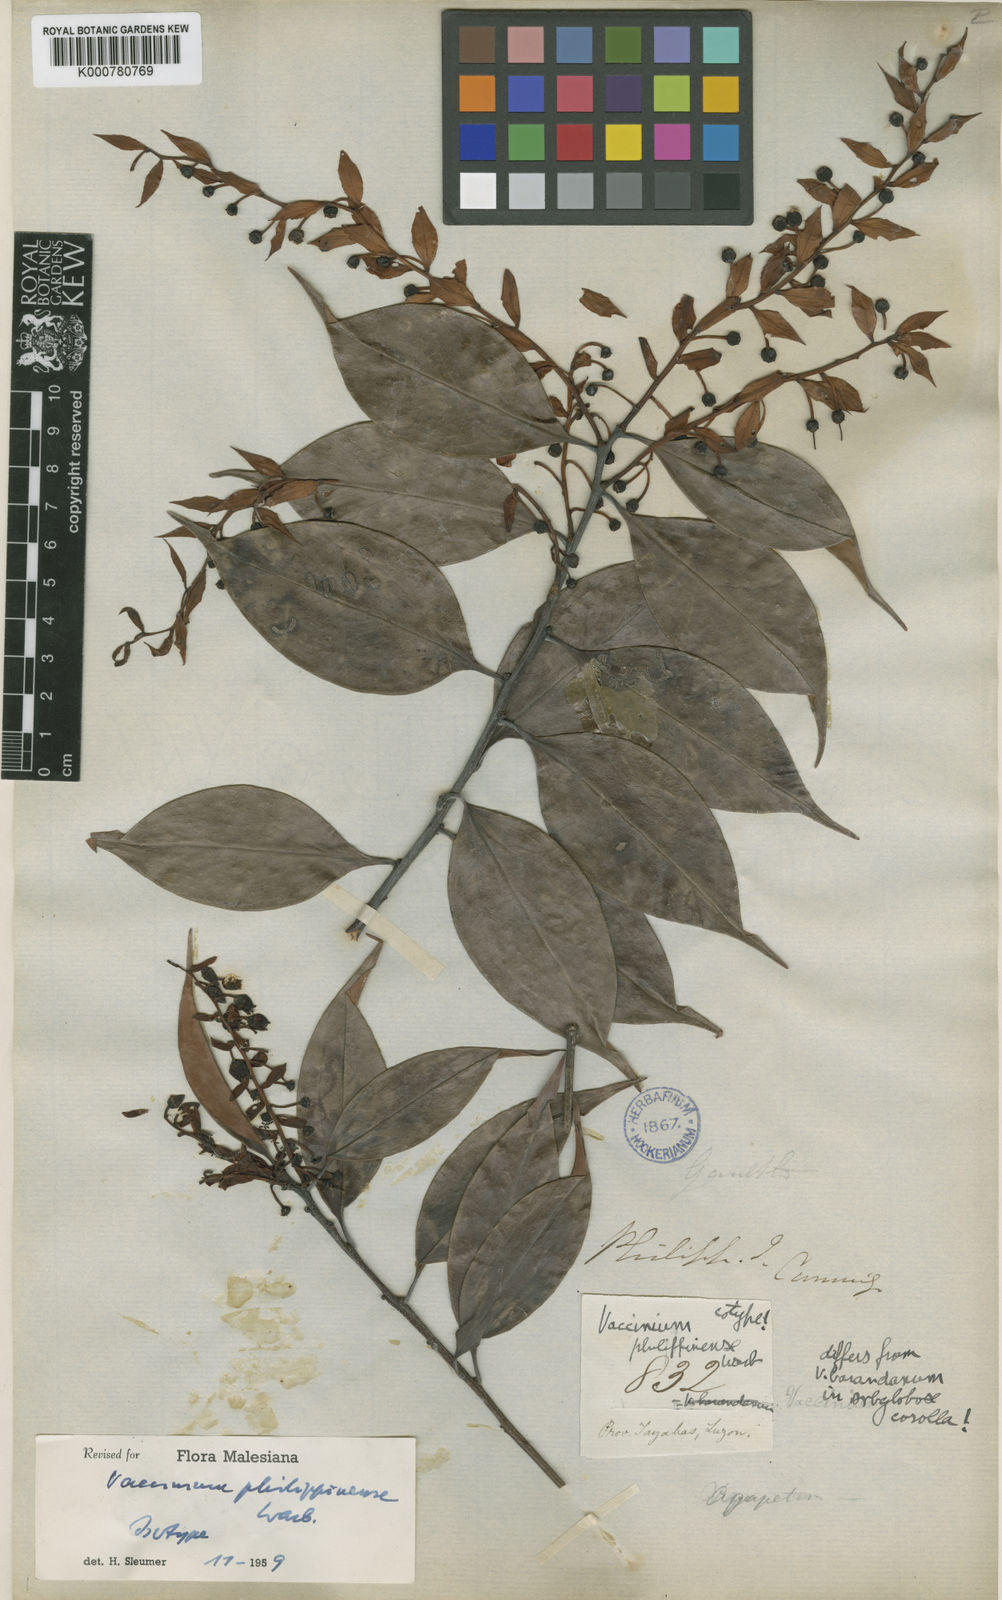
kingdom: Plantae
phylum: Tracheophyta
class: Magnoliopsida
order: Ericales
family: Ericaceae
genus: Vaccinium
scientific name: Vaccinium philippinense
